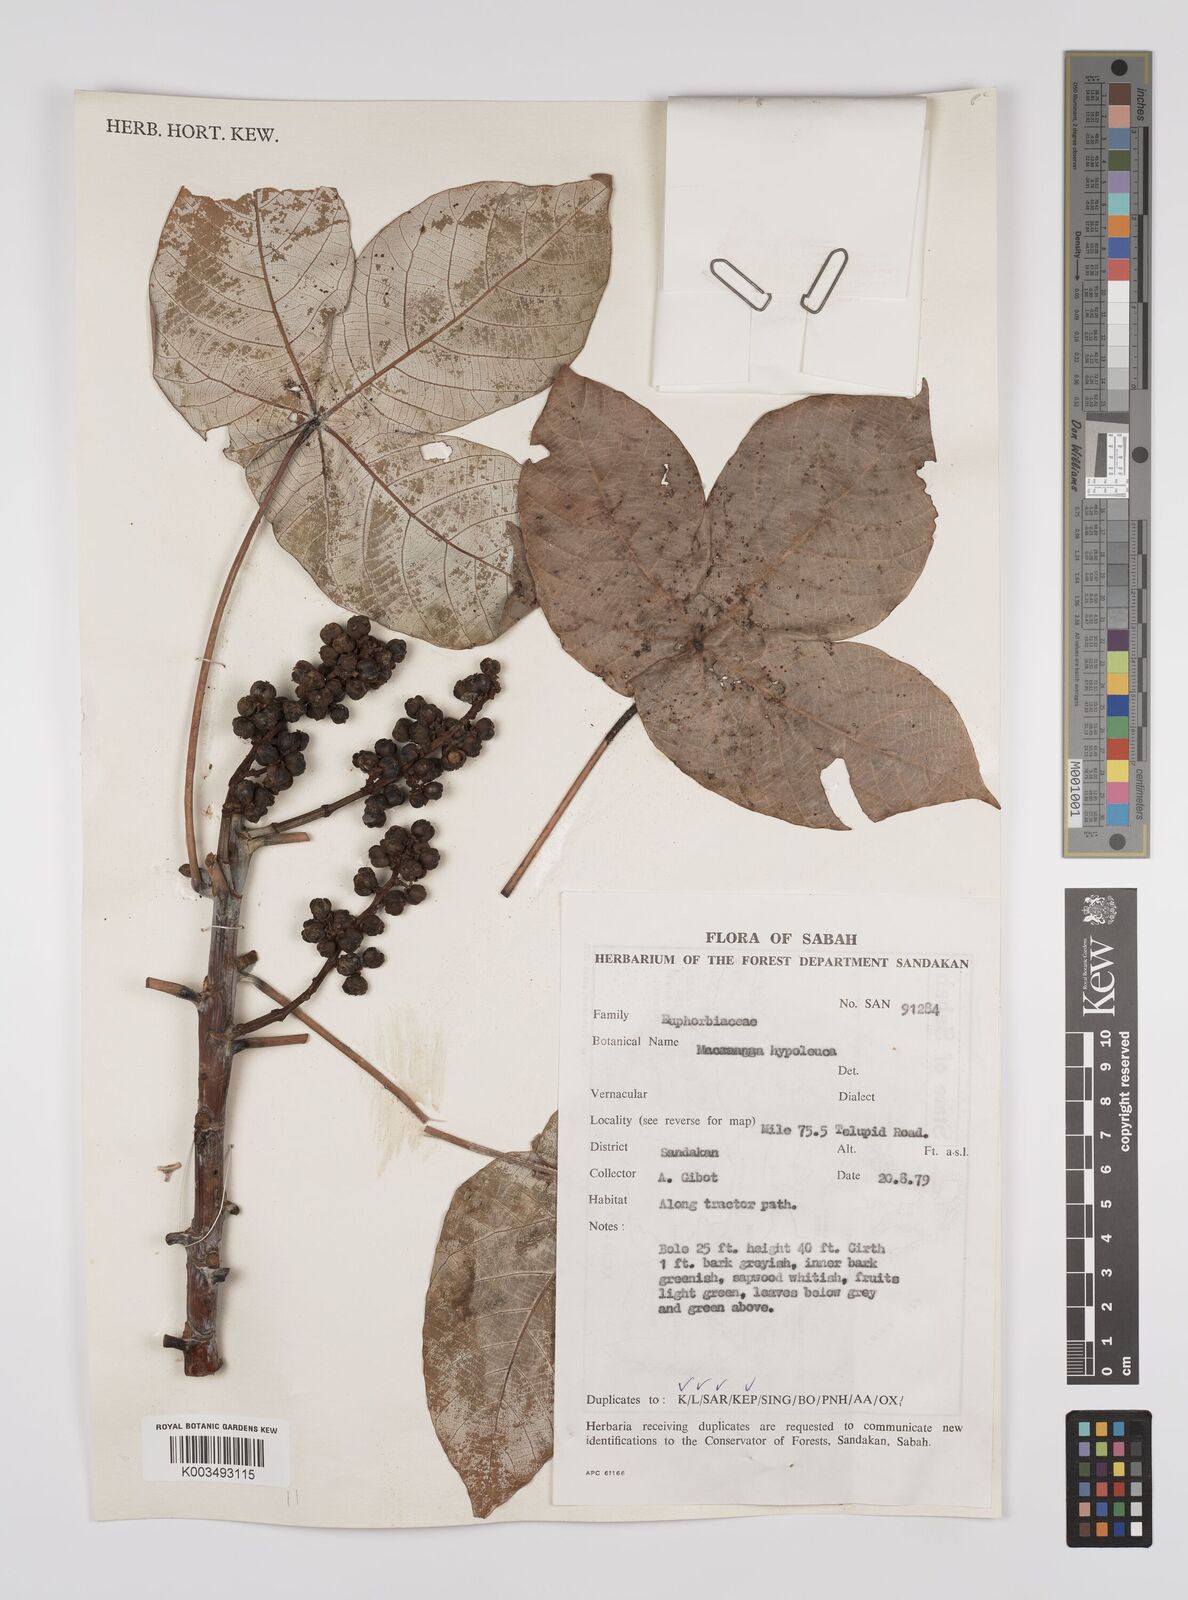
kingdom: Plantae
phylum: Tracheophyta
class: Magnoliopsida
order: Malpighiales
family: Euphorbiaceae
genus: Macaranga
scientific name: Macaranga hypoleuca
